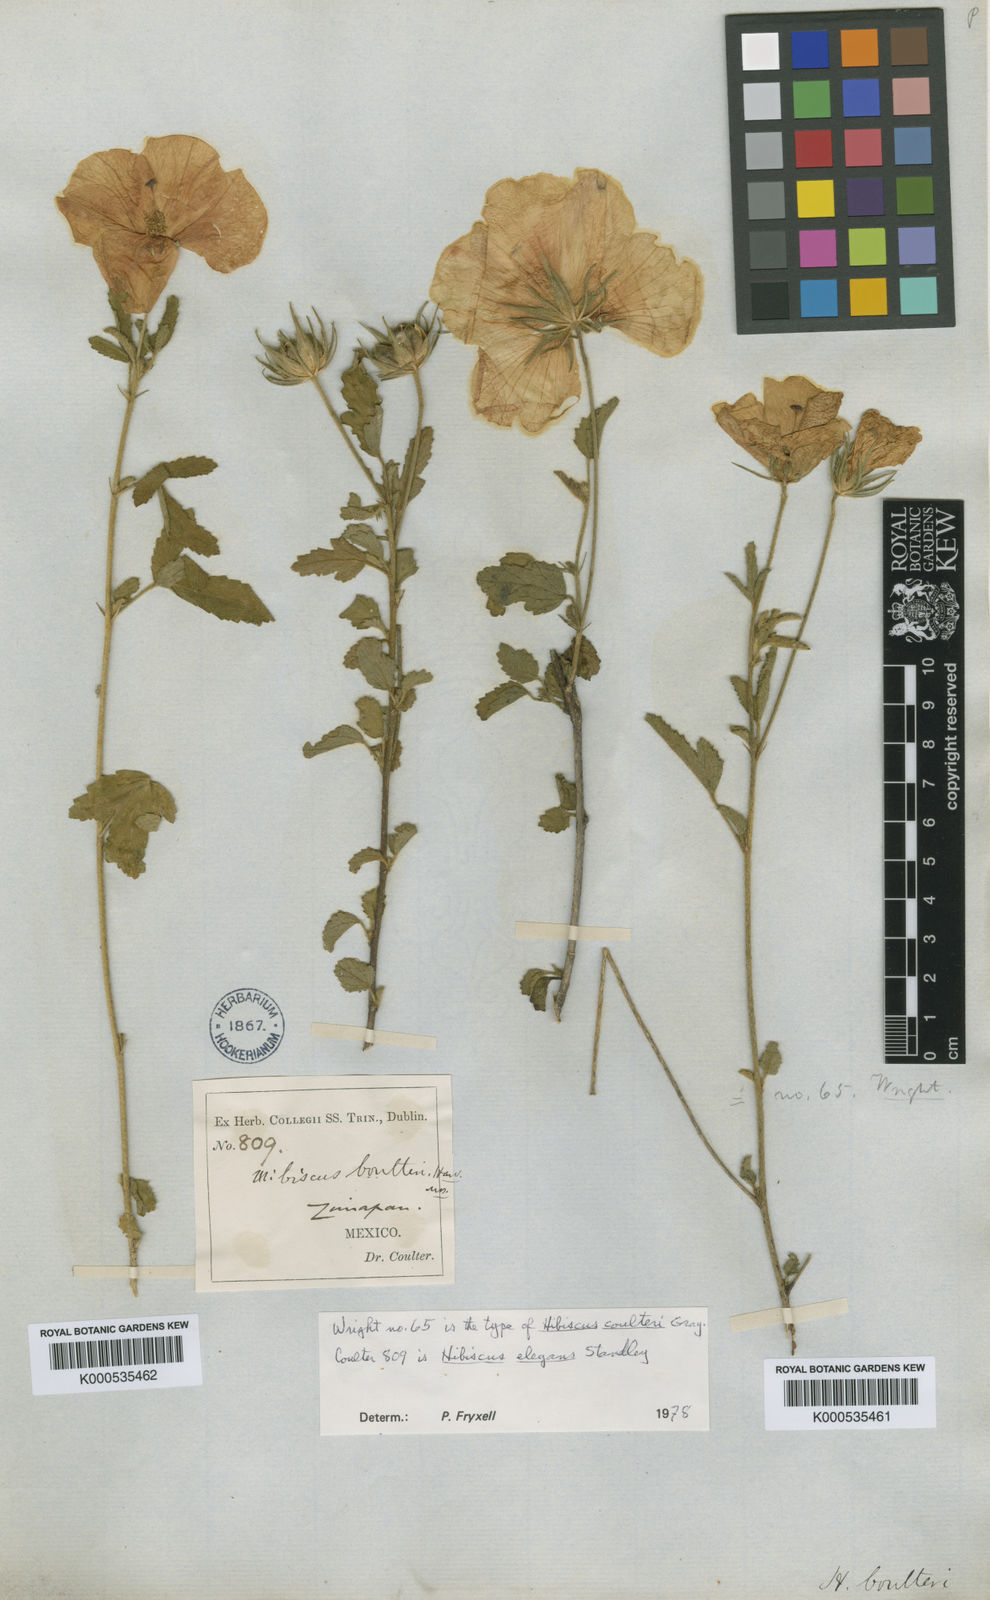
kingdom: Plantae
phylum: Tracheophyta
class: Magnoliopsida
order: Malvales
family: Malvaceae
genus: Hibiscus
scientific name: Hibiscus coulteri
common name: Desert rose-mallow
